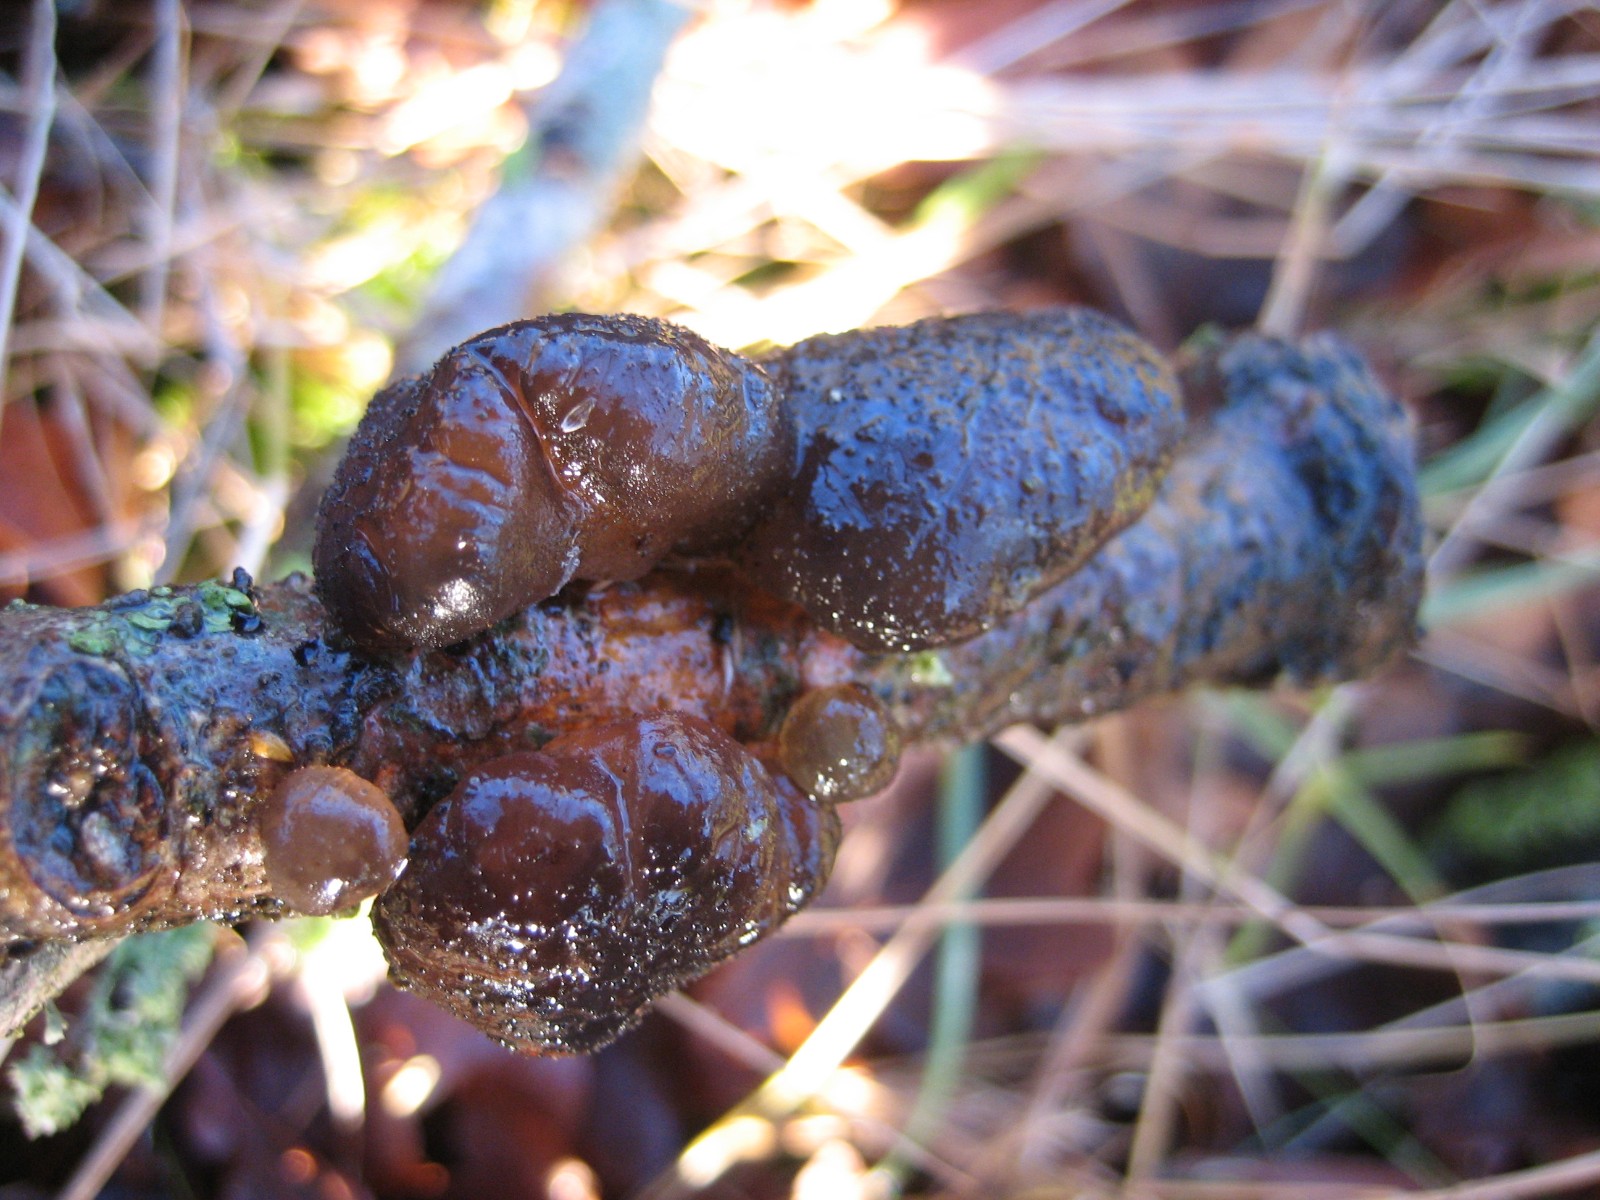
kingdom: Fungi
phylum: Basidiomycota
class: Agaricomycetes
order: Auriculariales
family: Auriculariaceae
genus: Exidia
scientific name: Exidia glandulosa
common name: ege-bævretop
